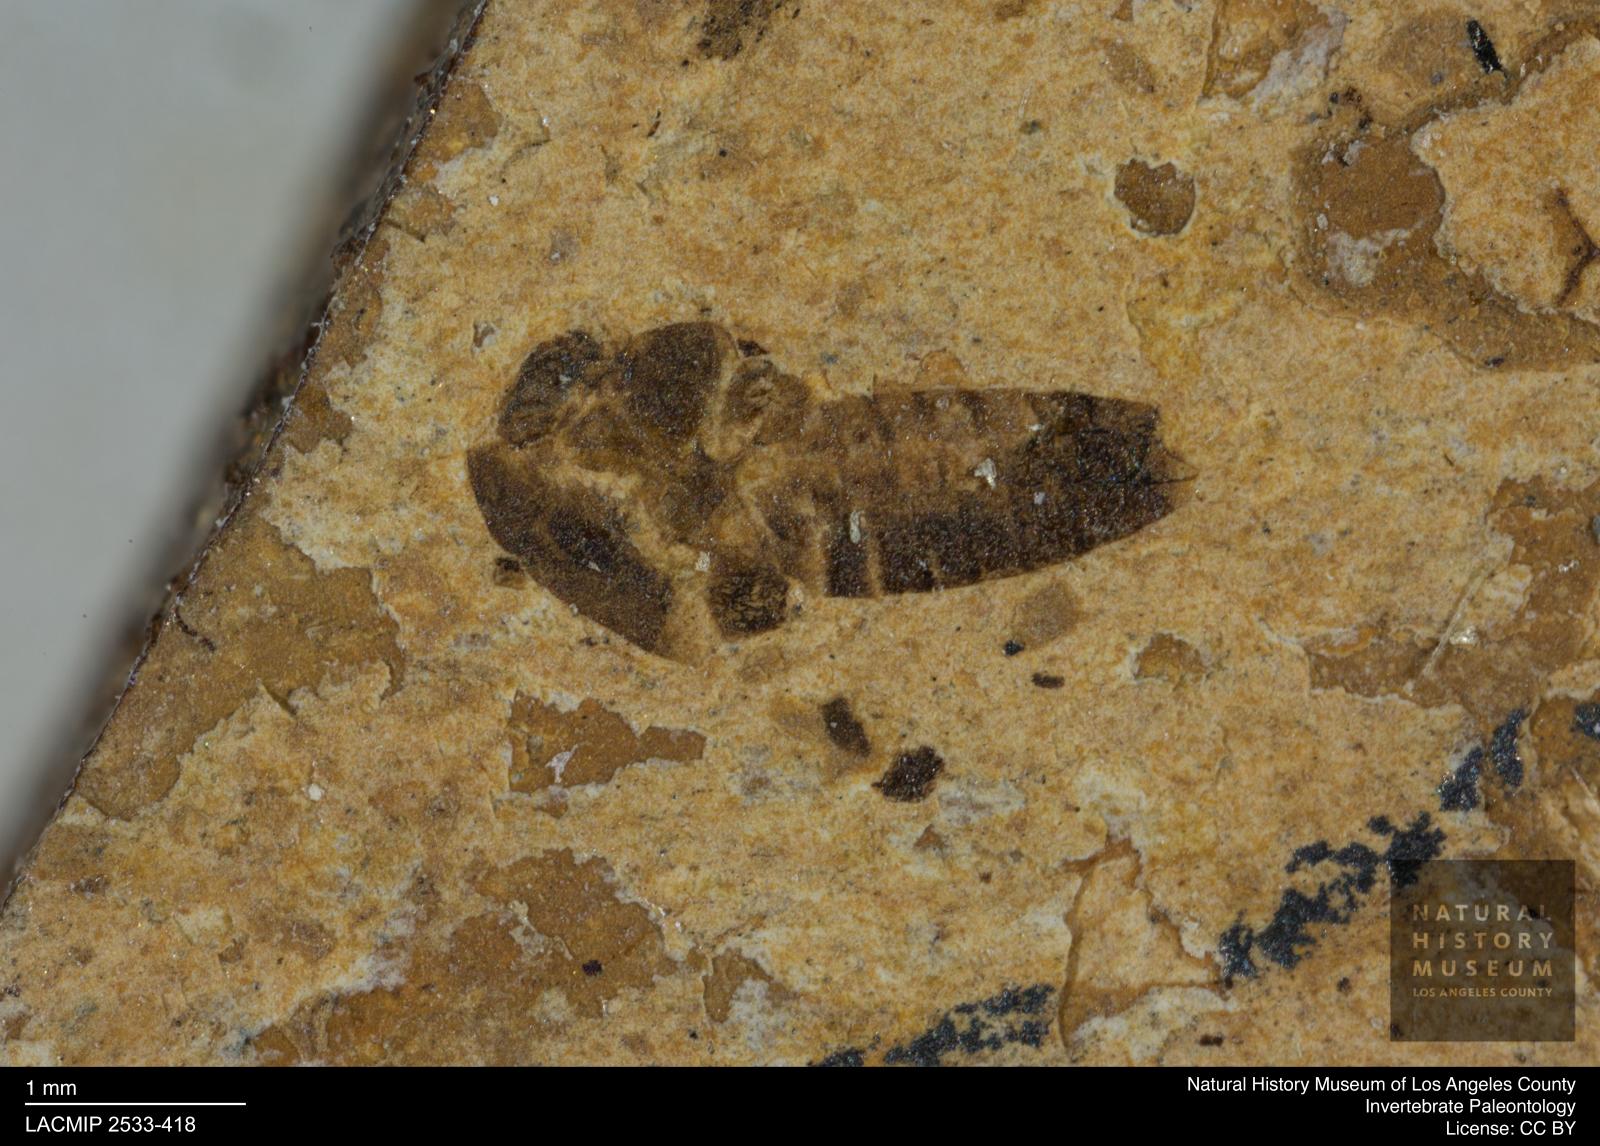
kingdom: Animalia
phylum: Arthropoda
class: Insecta
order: Diptera
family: Chironomidae
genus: Tanypus
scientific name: Tanypus fuscus
